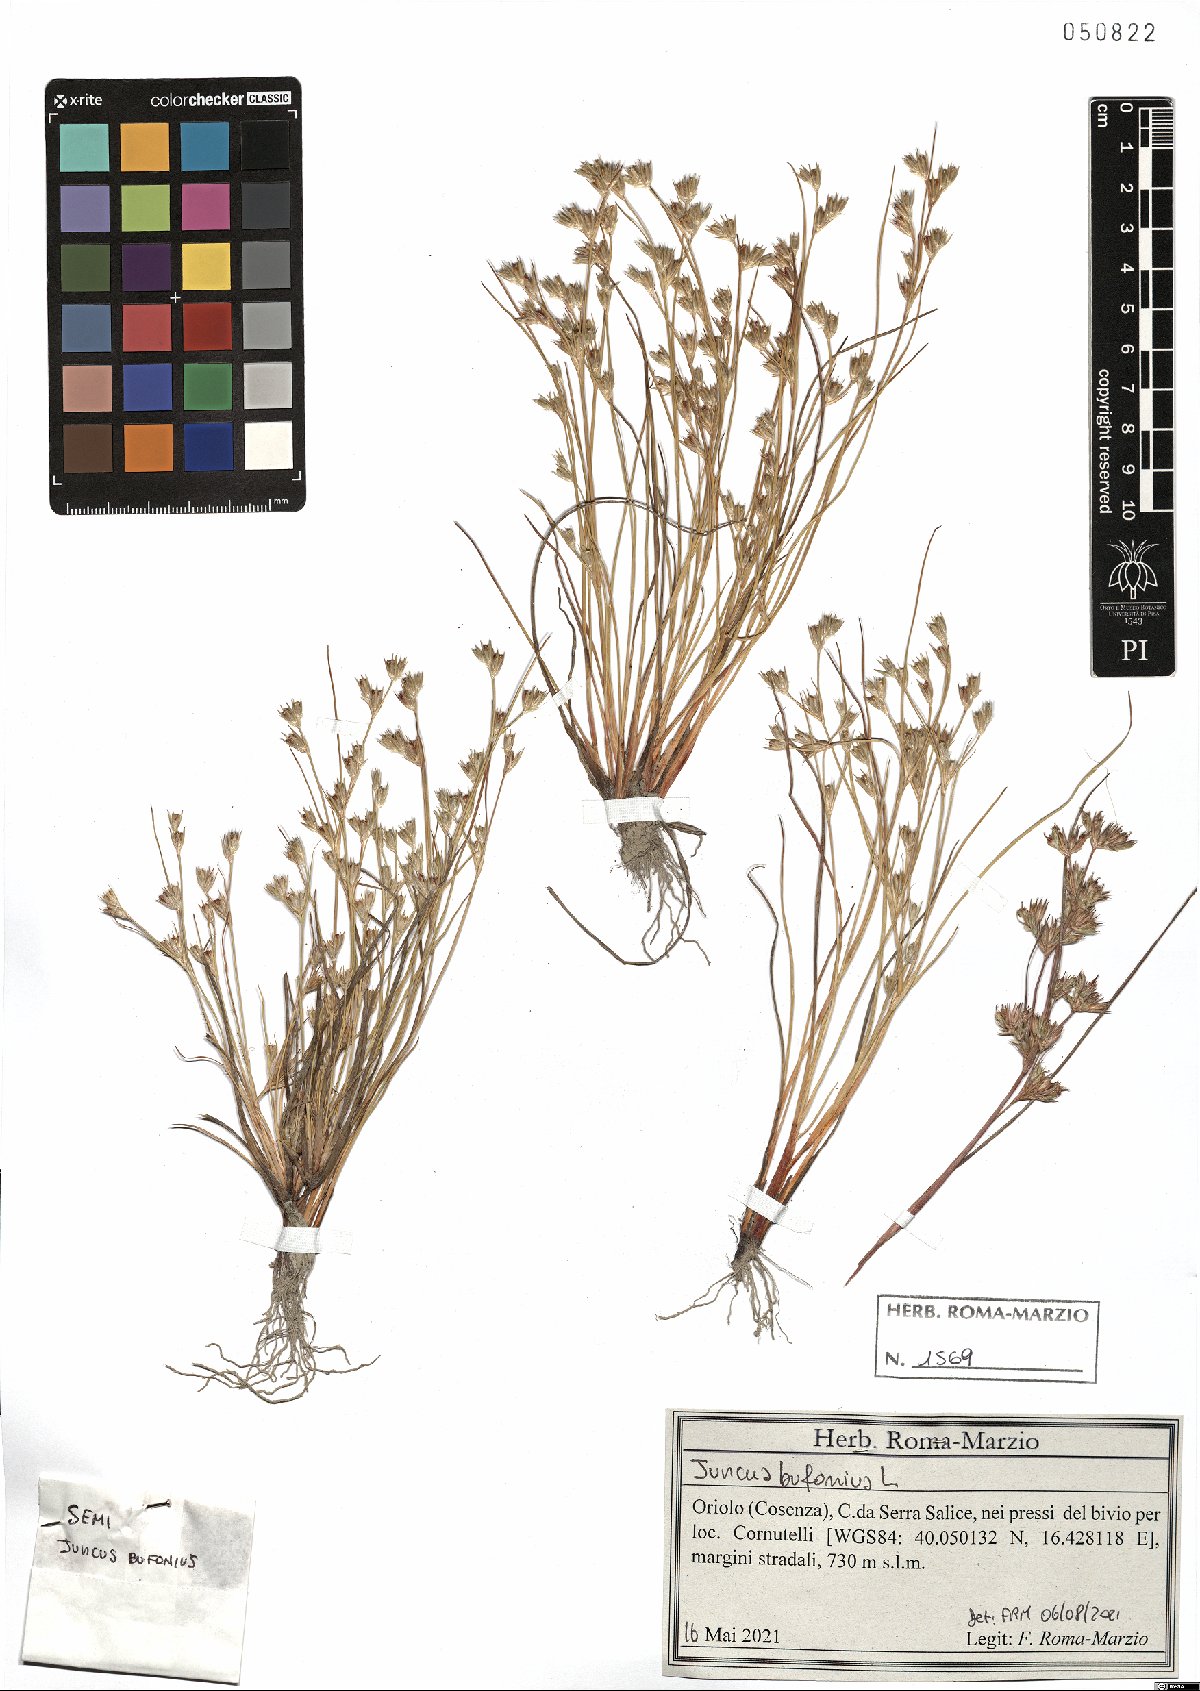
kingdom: Plantae
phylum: Tracheophyta
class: Liliopsida
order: Poales
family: Juncaceae
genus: Juncus
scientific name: Juncus bufonius
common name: Toad rush
